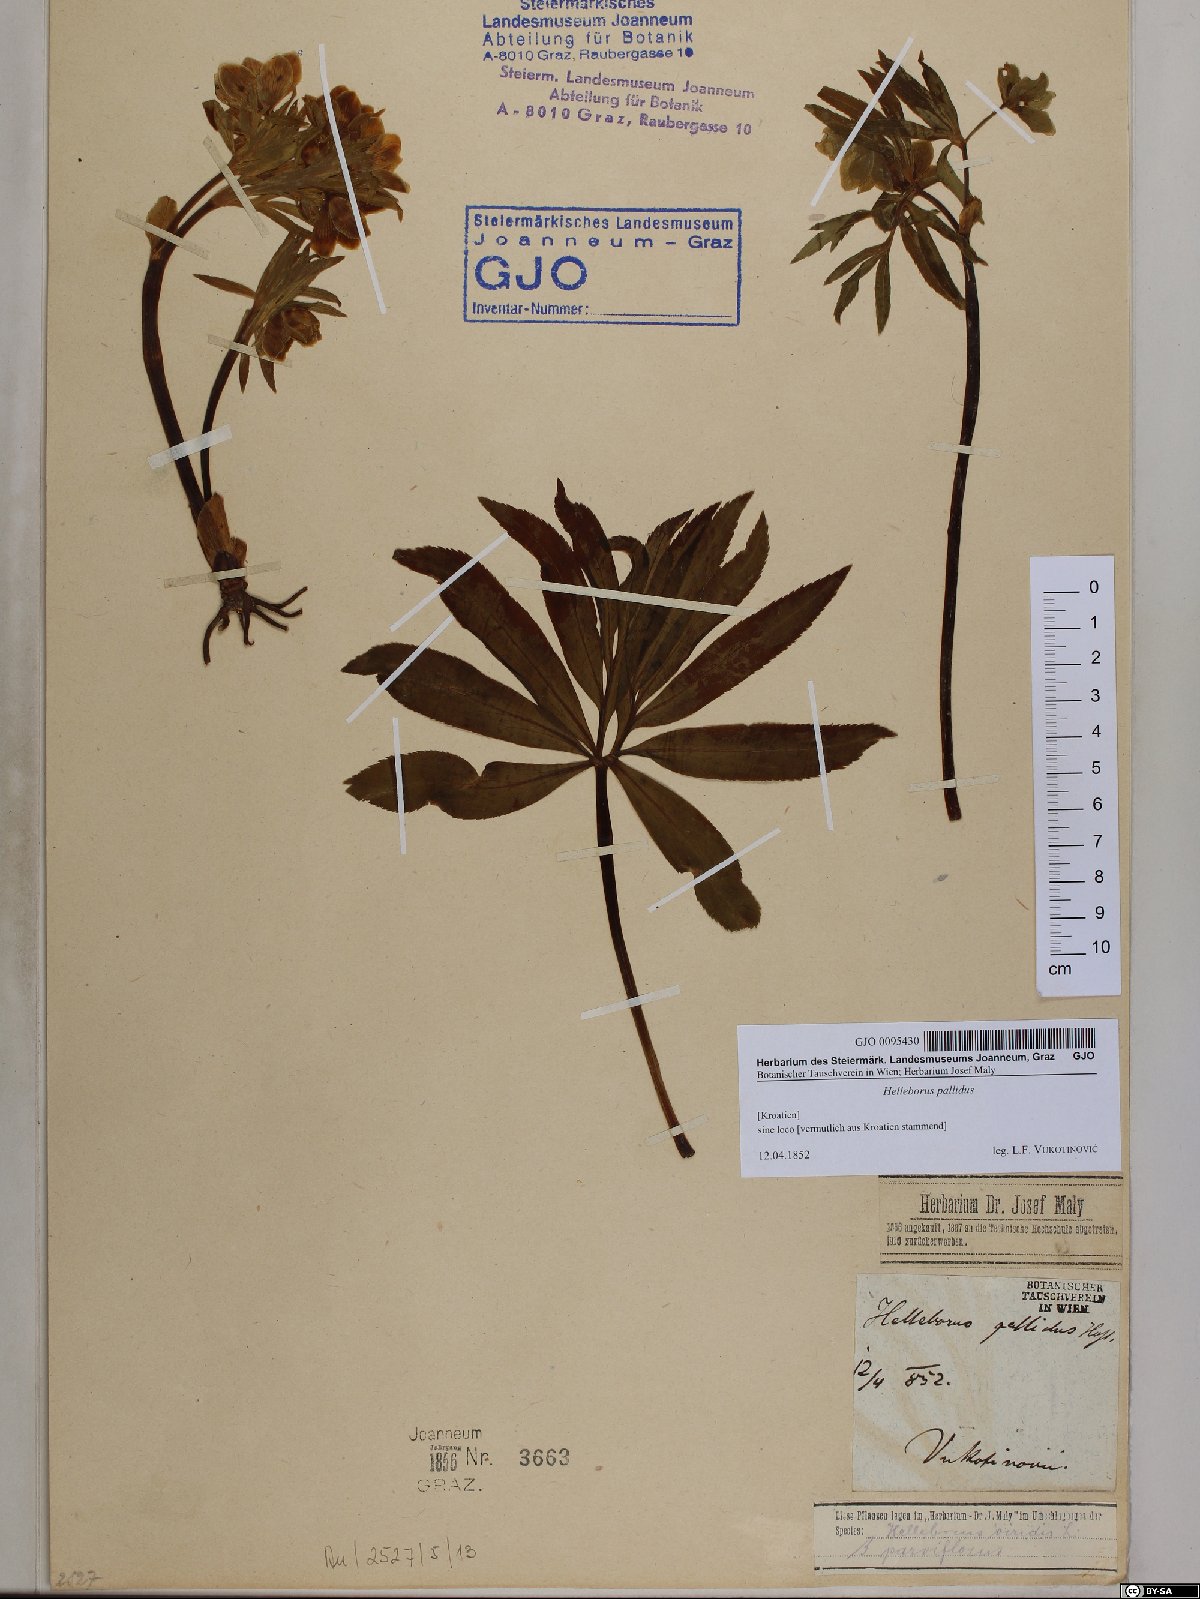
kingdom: Plantae
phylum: Tracheophyta
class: Magnoliopsida
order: Ranunculales
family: Ranunculaceae
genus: Helleborus
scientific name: Helleborus dumetorum
